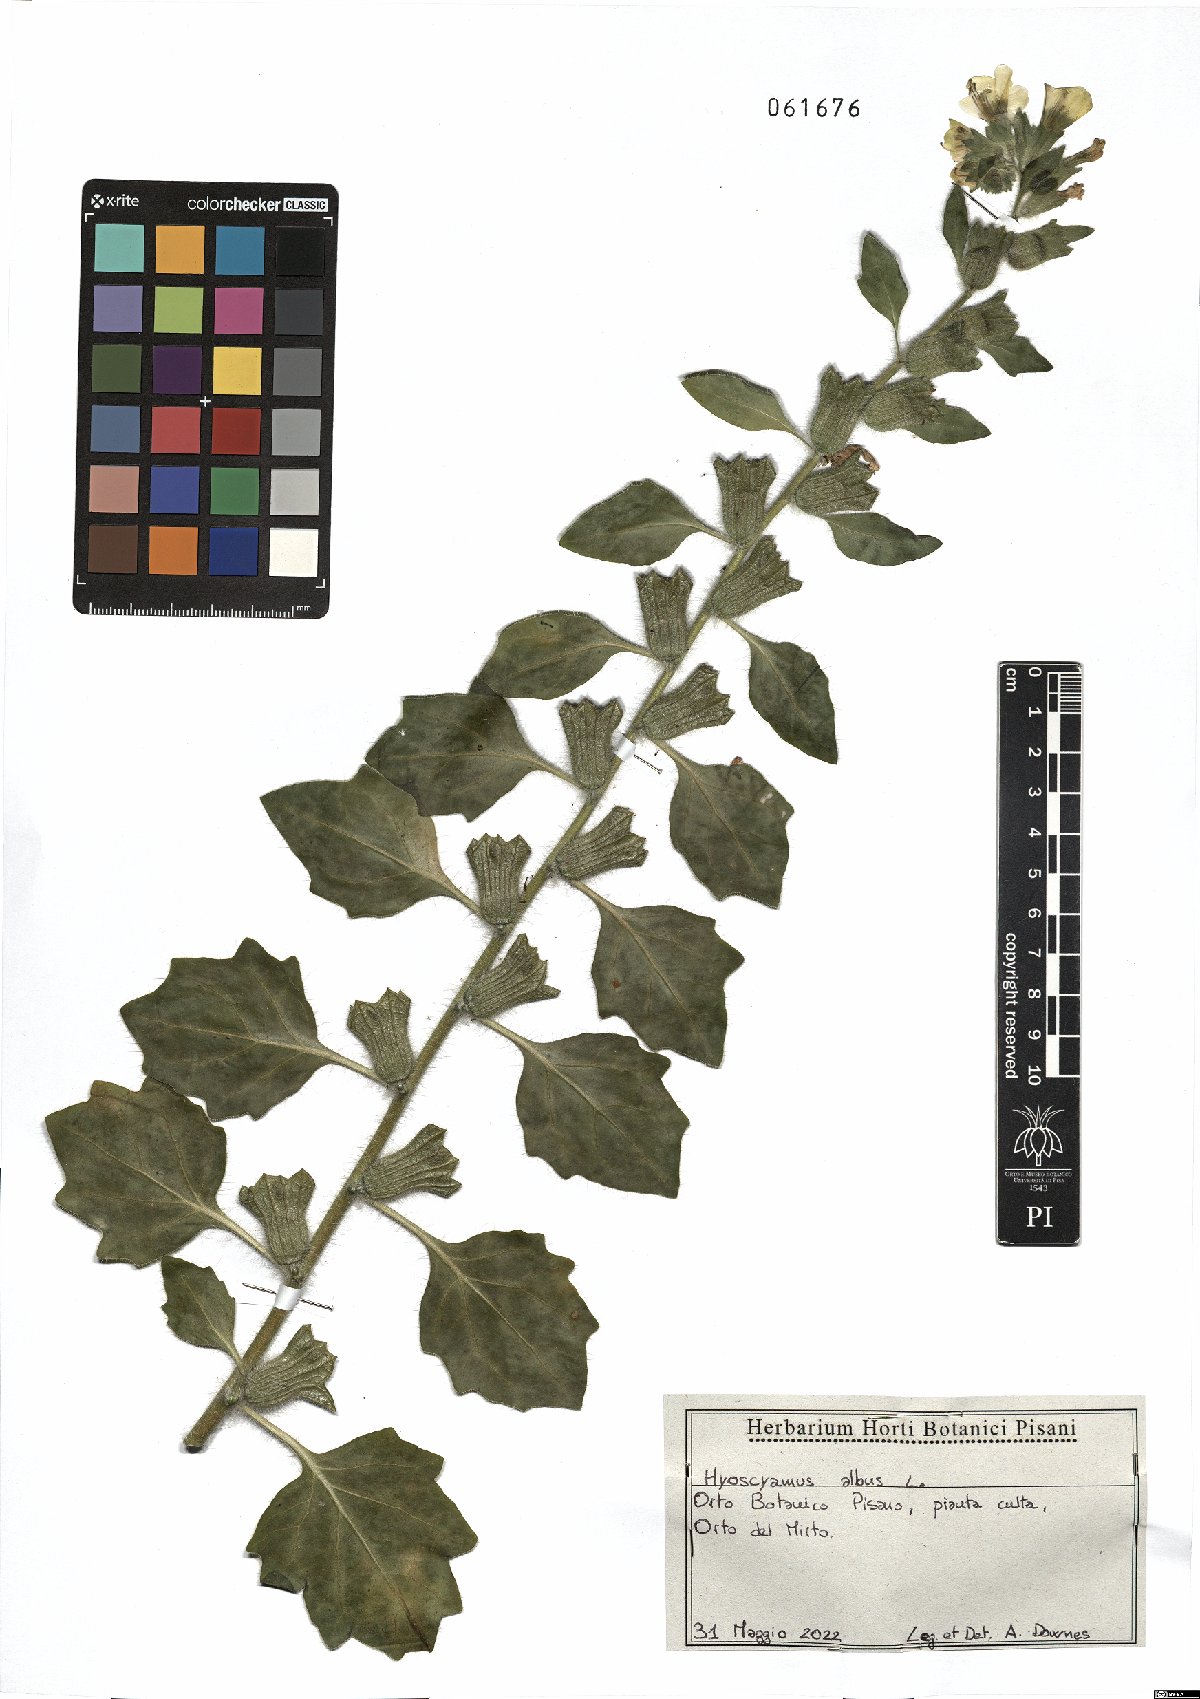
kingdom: Plantae
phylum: Tracheophyta
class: Magnoliopsida
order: Solanales
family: Solanaceae
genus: Hyoscyamus
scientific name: Hyoscyamus albus
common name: White henbane
